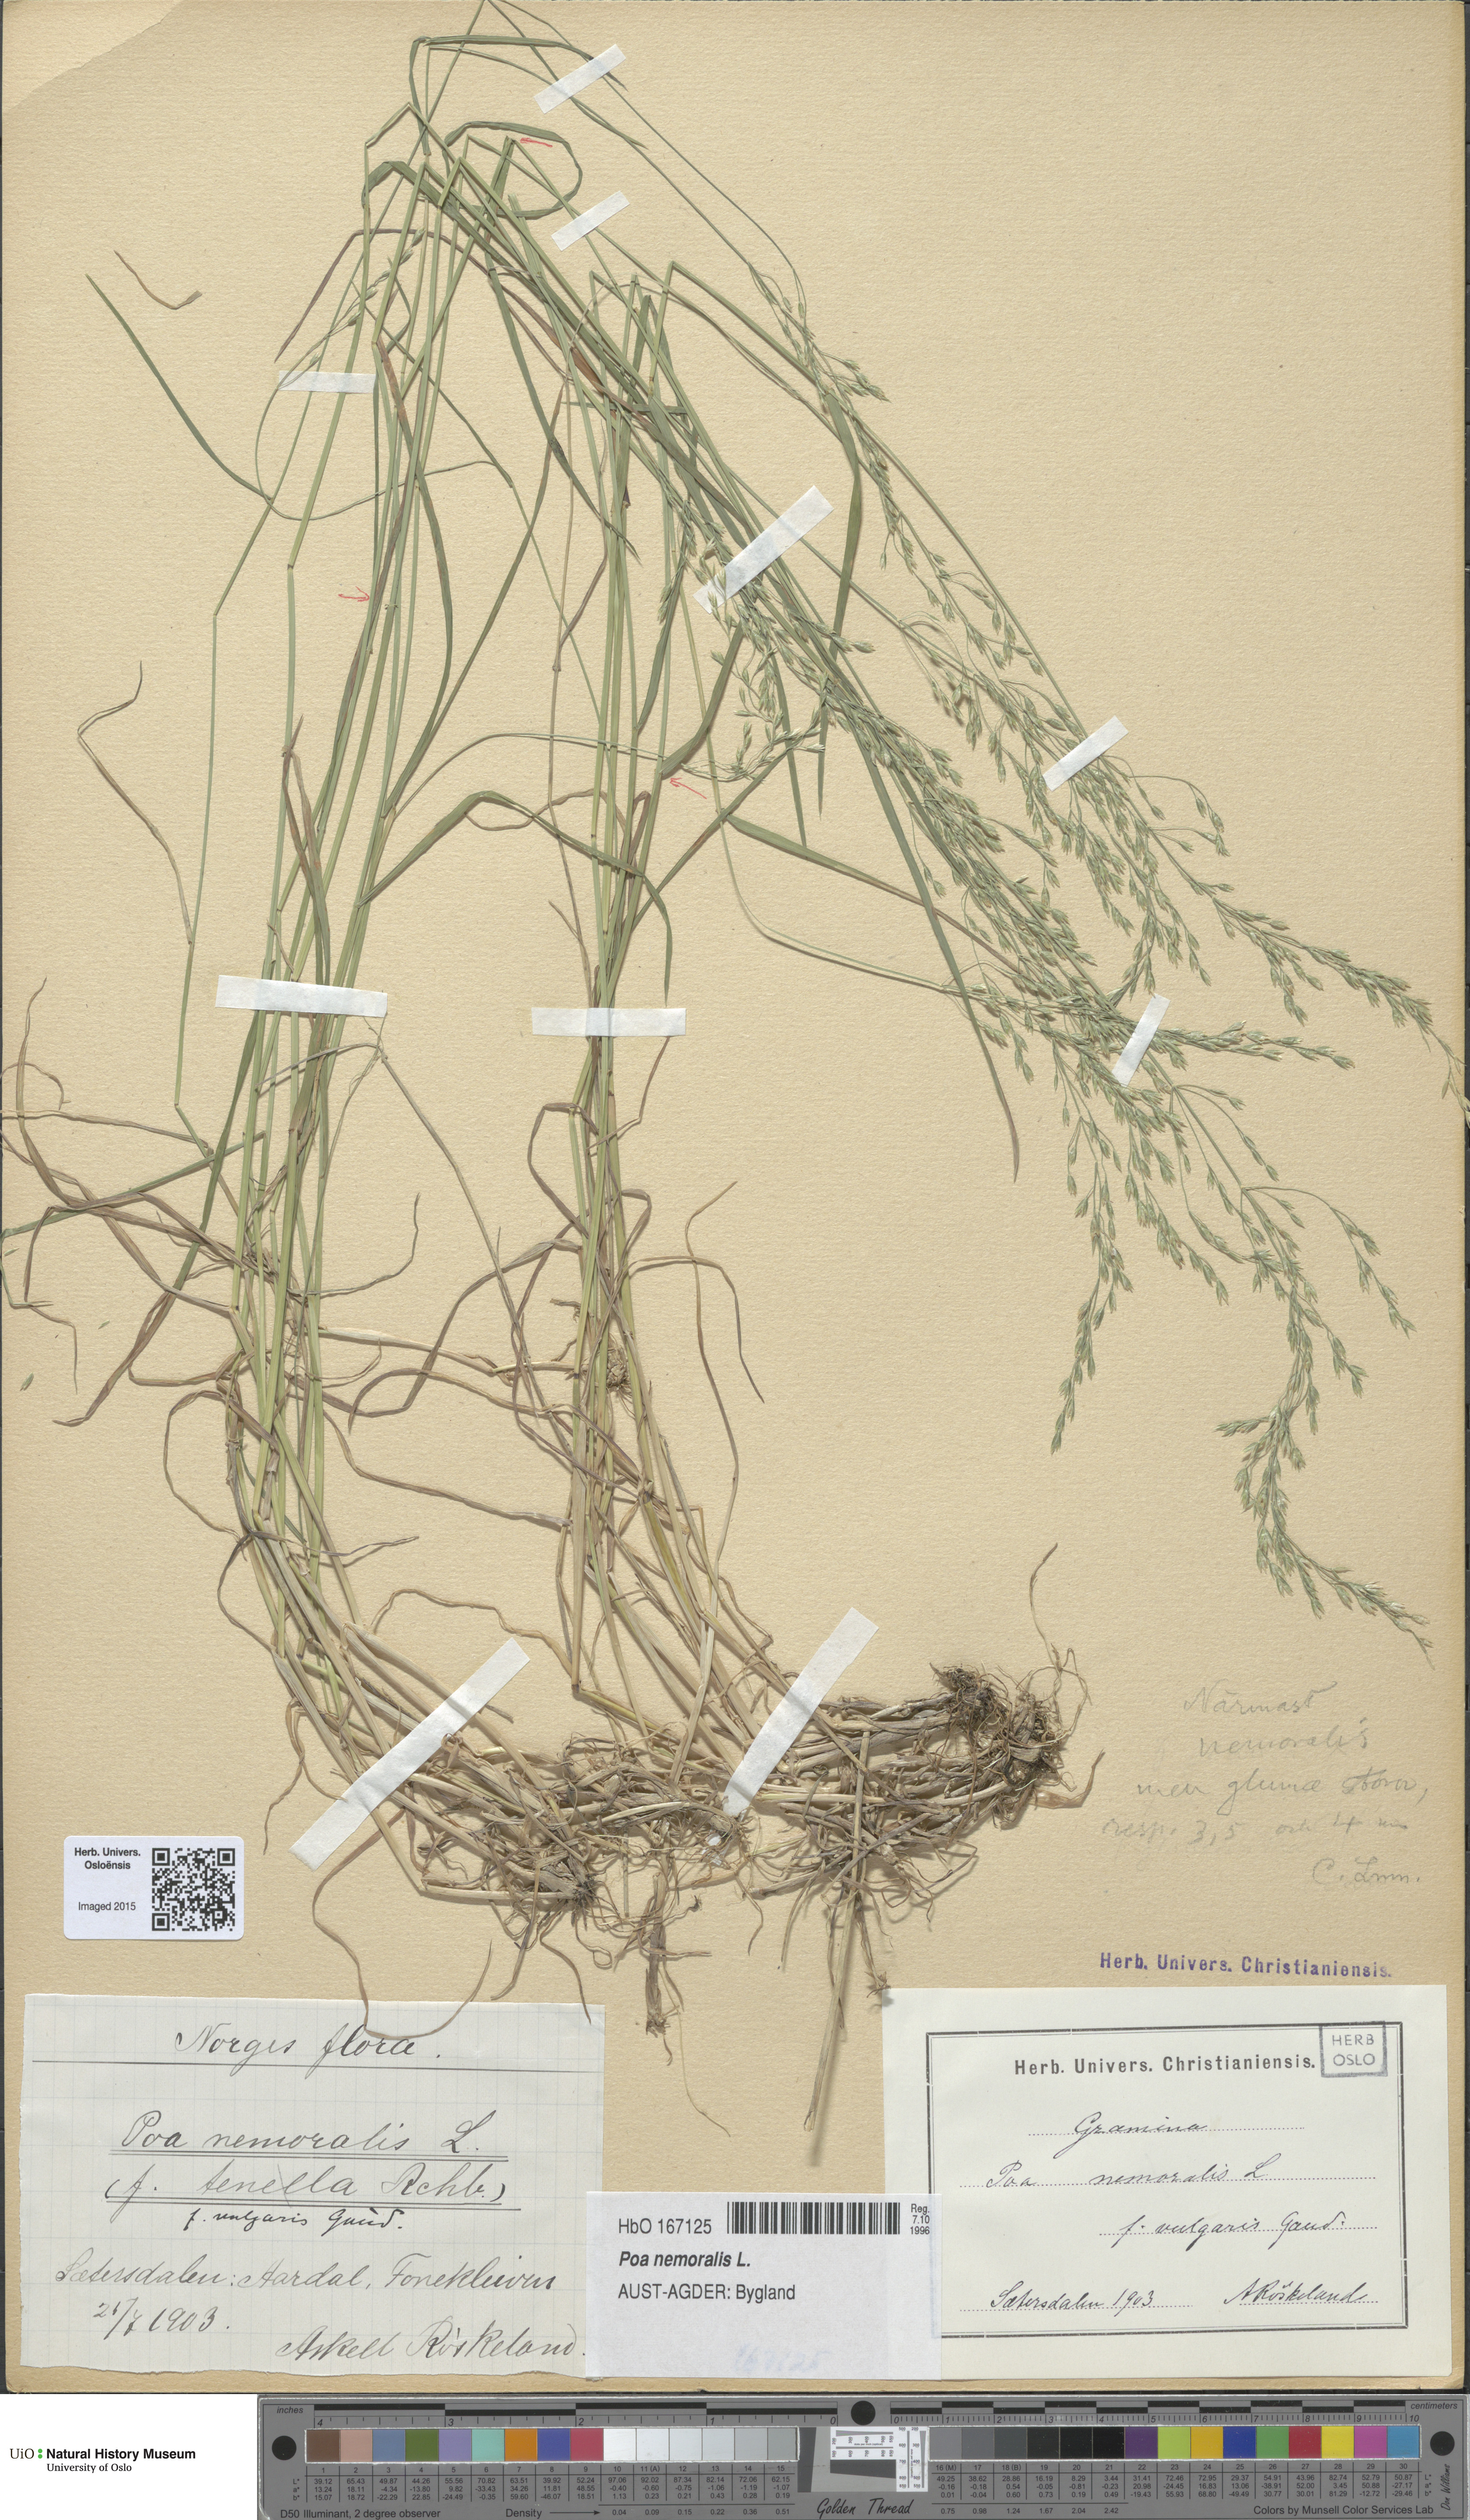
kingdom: Plantae
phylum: Tracheophyta
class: Liliopsida
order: Poales
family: Poaceae
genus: Poa
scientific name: Poa nemoralis
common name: Wood bluegrass
